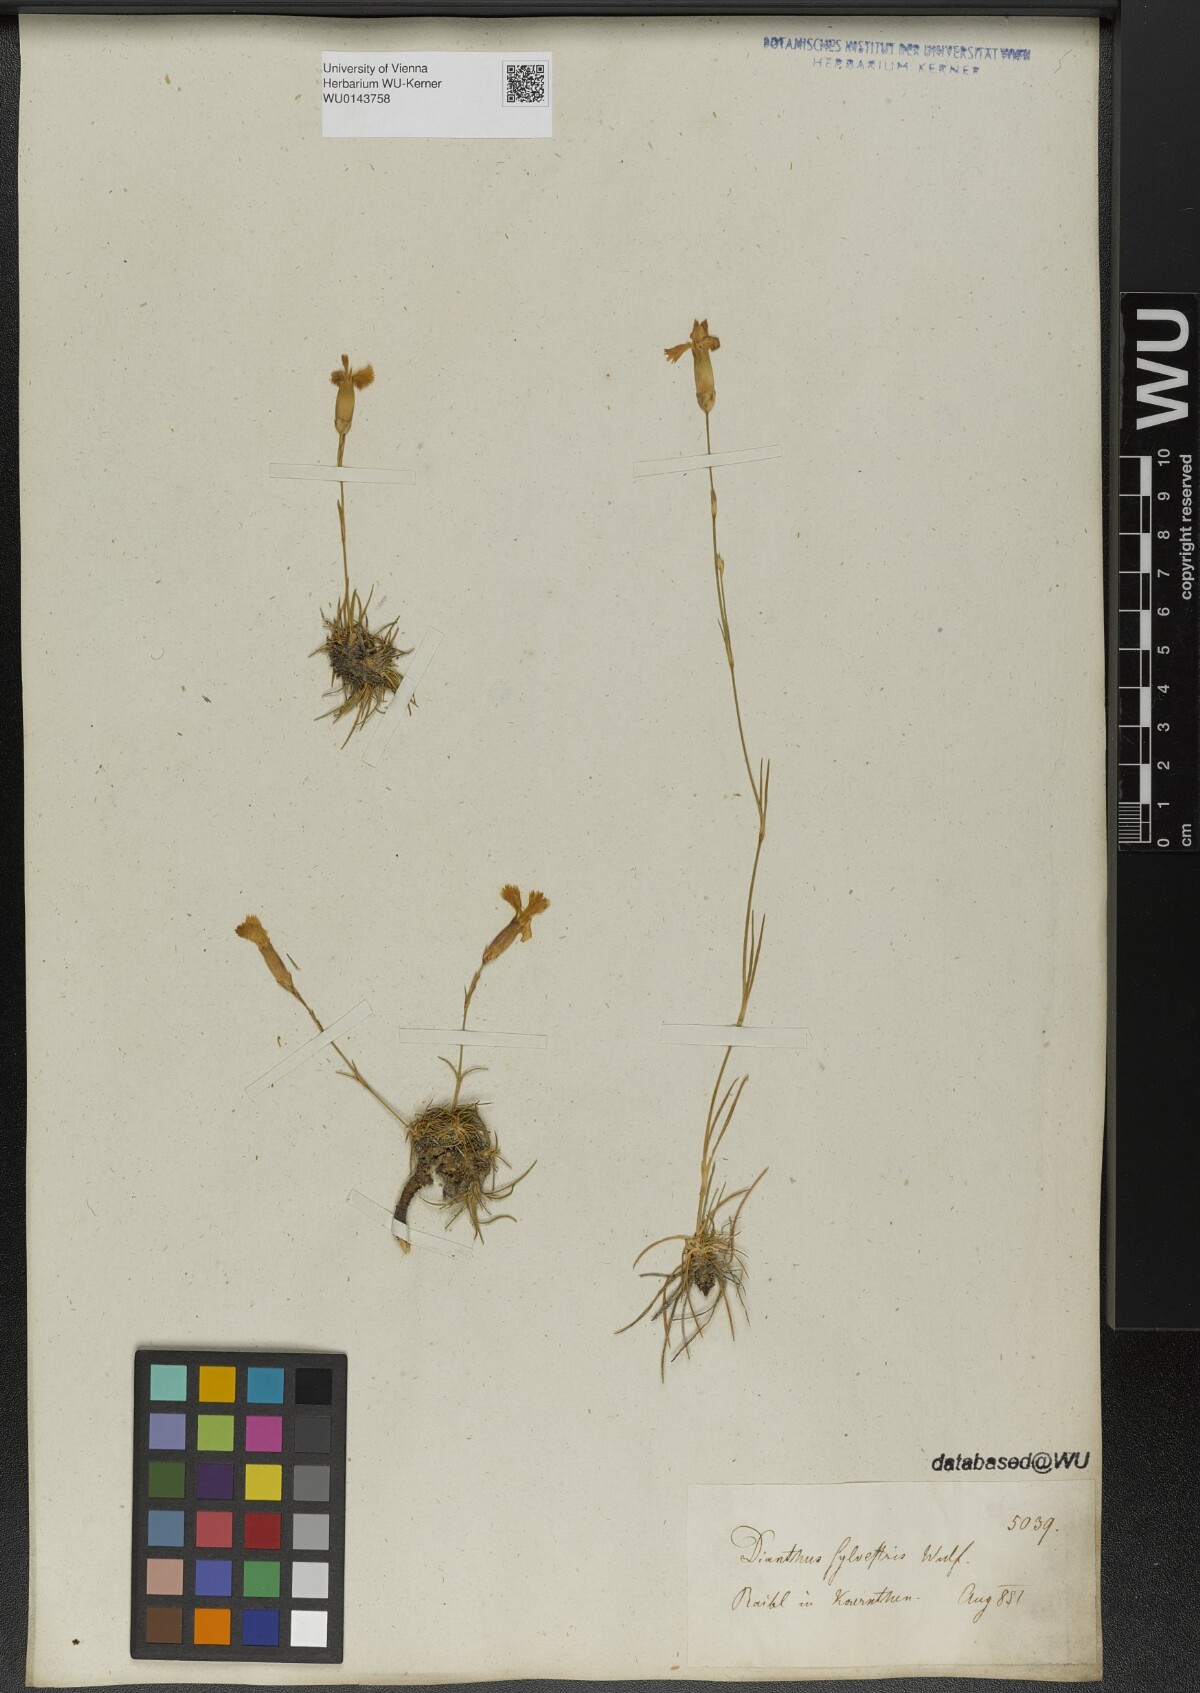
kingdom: Plantae
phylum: Tracheophyta
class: Magnoliopsida
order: Caryophyllales
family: Caryophyllaceae
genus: Dianthus
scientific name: Dianthus sylvestris
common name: Wood pink
